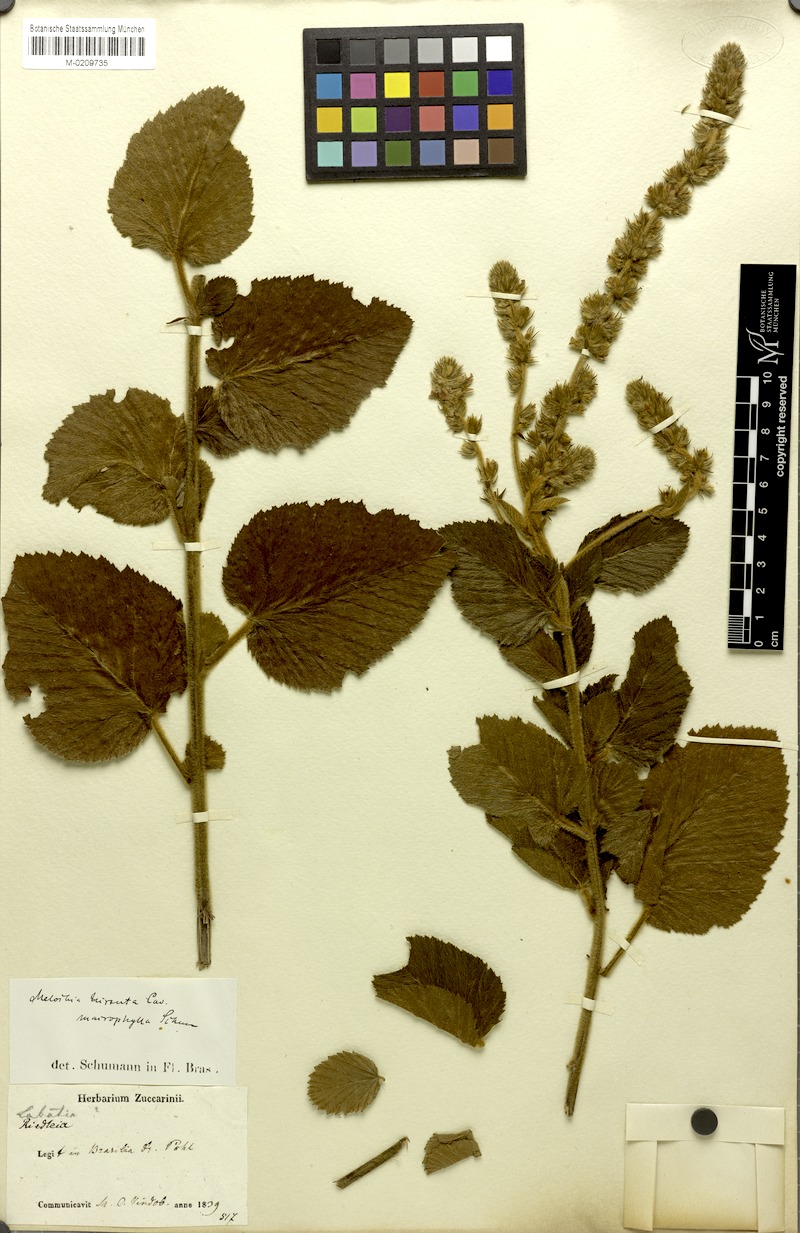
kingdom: Plantae
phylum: Tracheophyta
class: Magnoliopsida
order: Malvales
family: Malvaceae
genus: Melochia
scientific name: Melochia spicata
